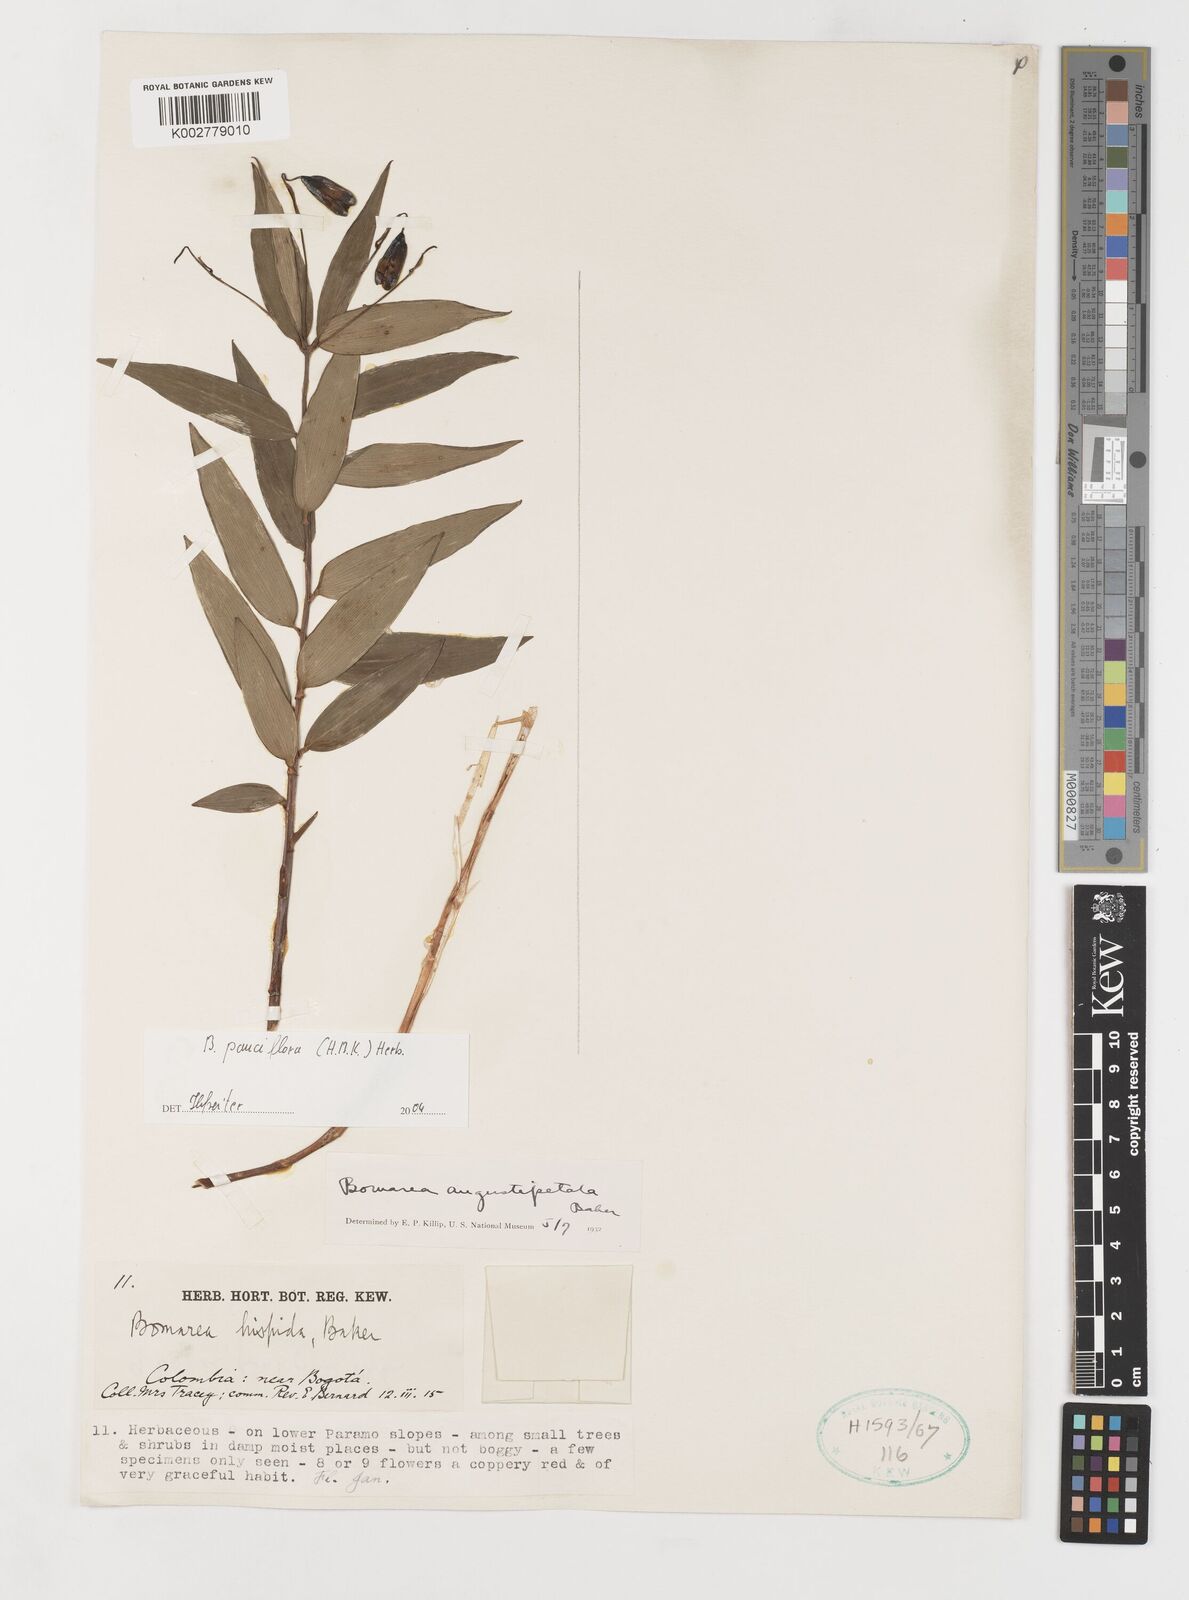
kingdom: Plantae
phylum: Tracheophyta
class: Liliopsida
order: Liliales
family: Alstroemeriaceae
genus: Bomarea
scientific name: Bomarea pauciflora
